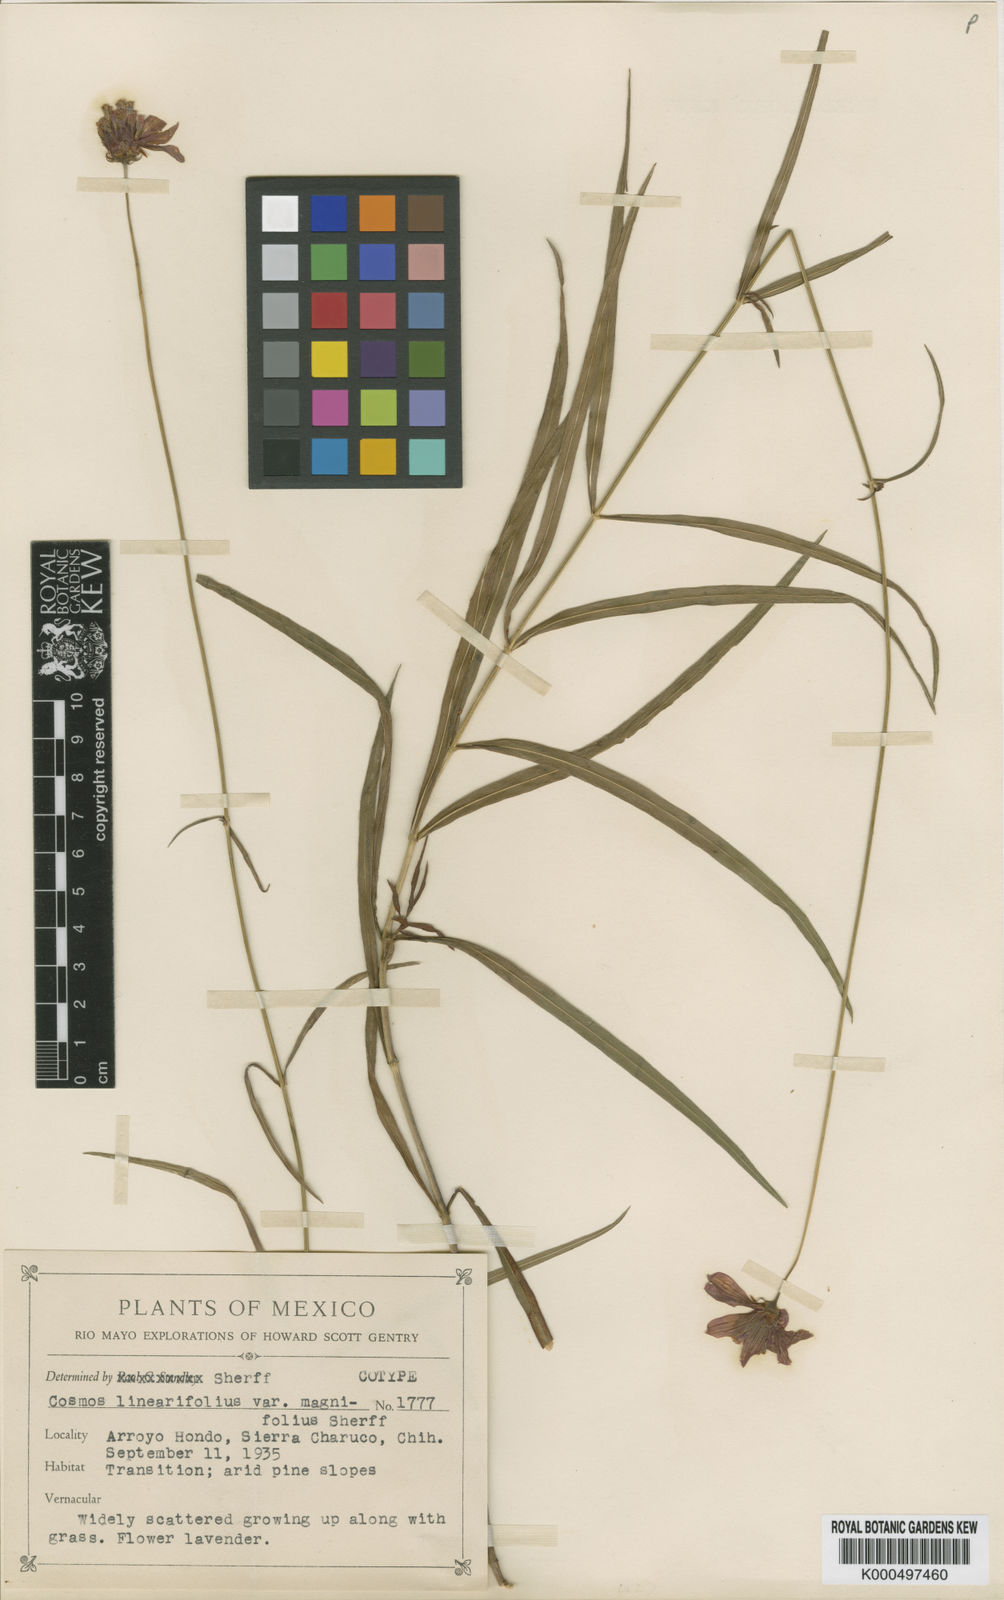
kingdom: Plantae
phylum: Tracheophyta
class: Magnoliopsida
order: Asterales
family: Asteraceae
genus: Cosmos
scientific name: Cosmos linearifolius
